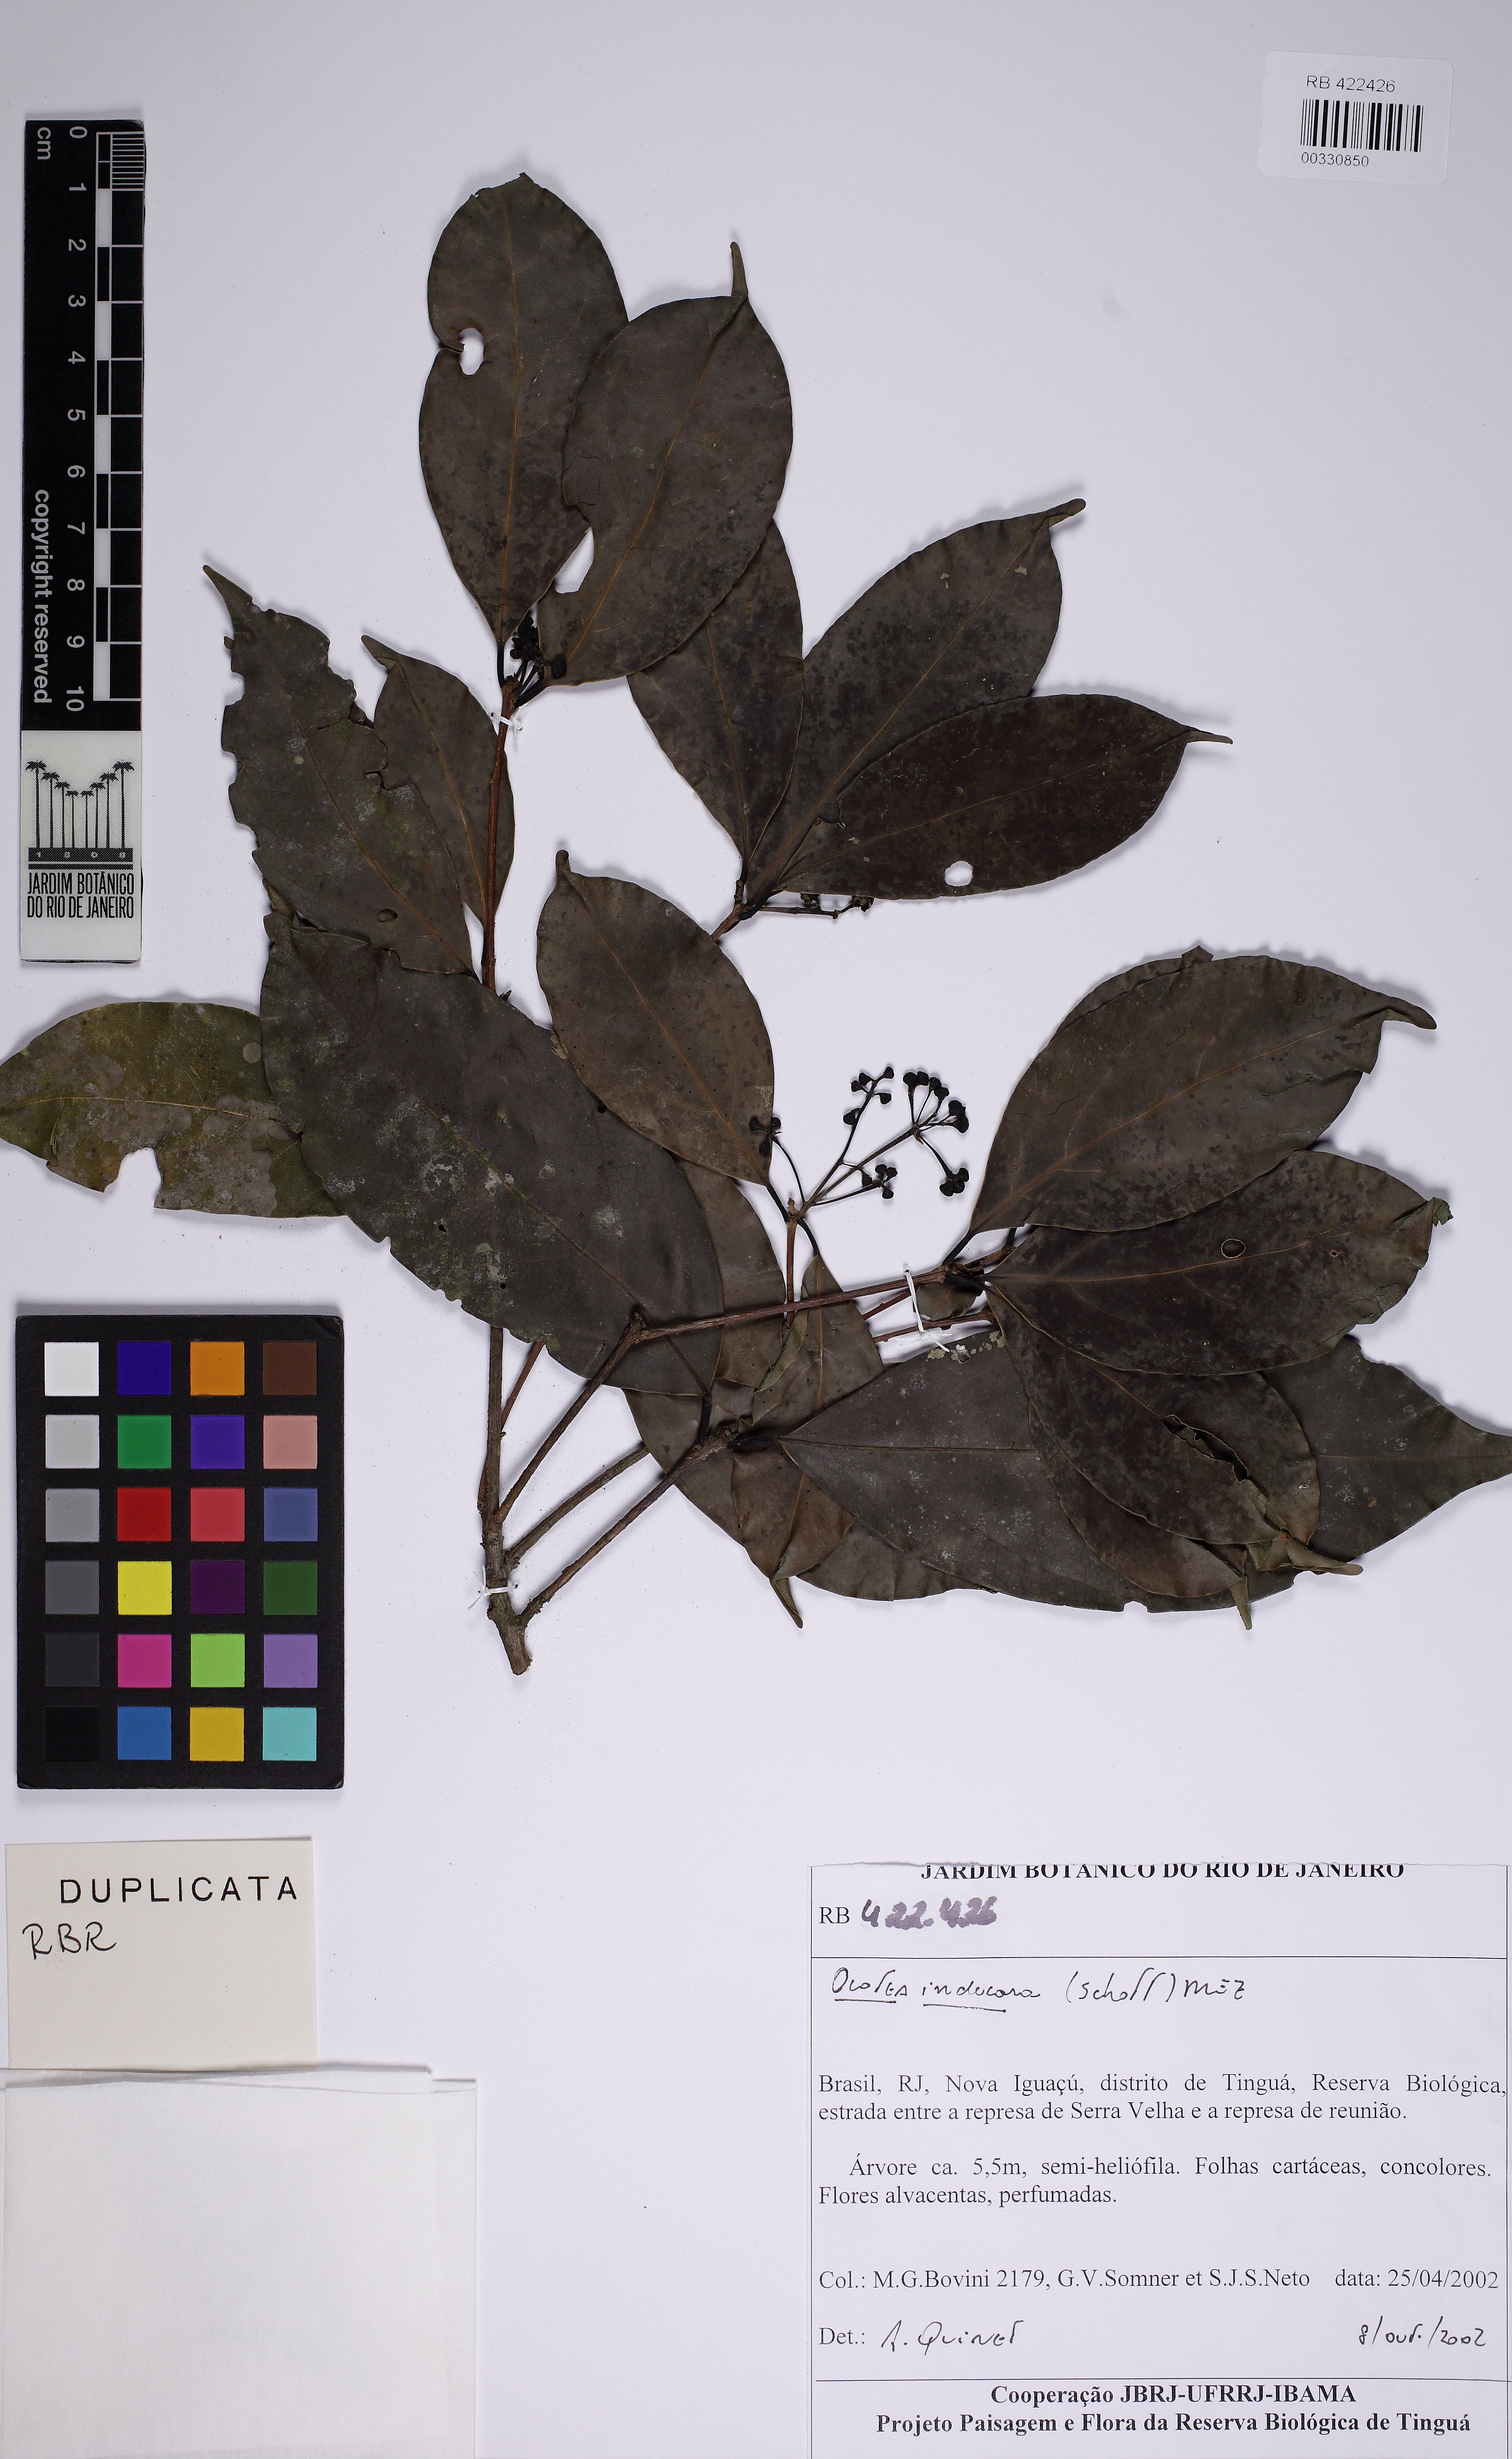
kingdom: Plantae
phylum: Tracheophyta
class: Magnoliopsida
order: Laurales
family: Lauraceae
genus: Mespilodaphne
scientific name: Mespilodaphne indecora
